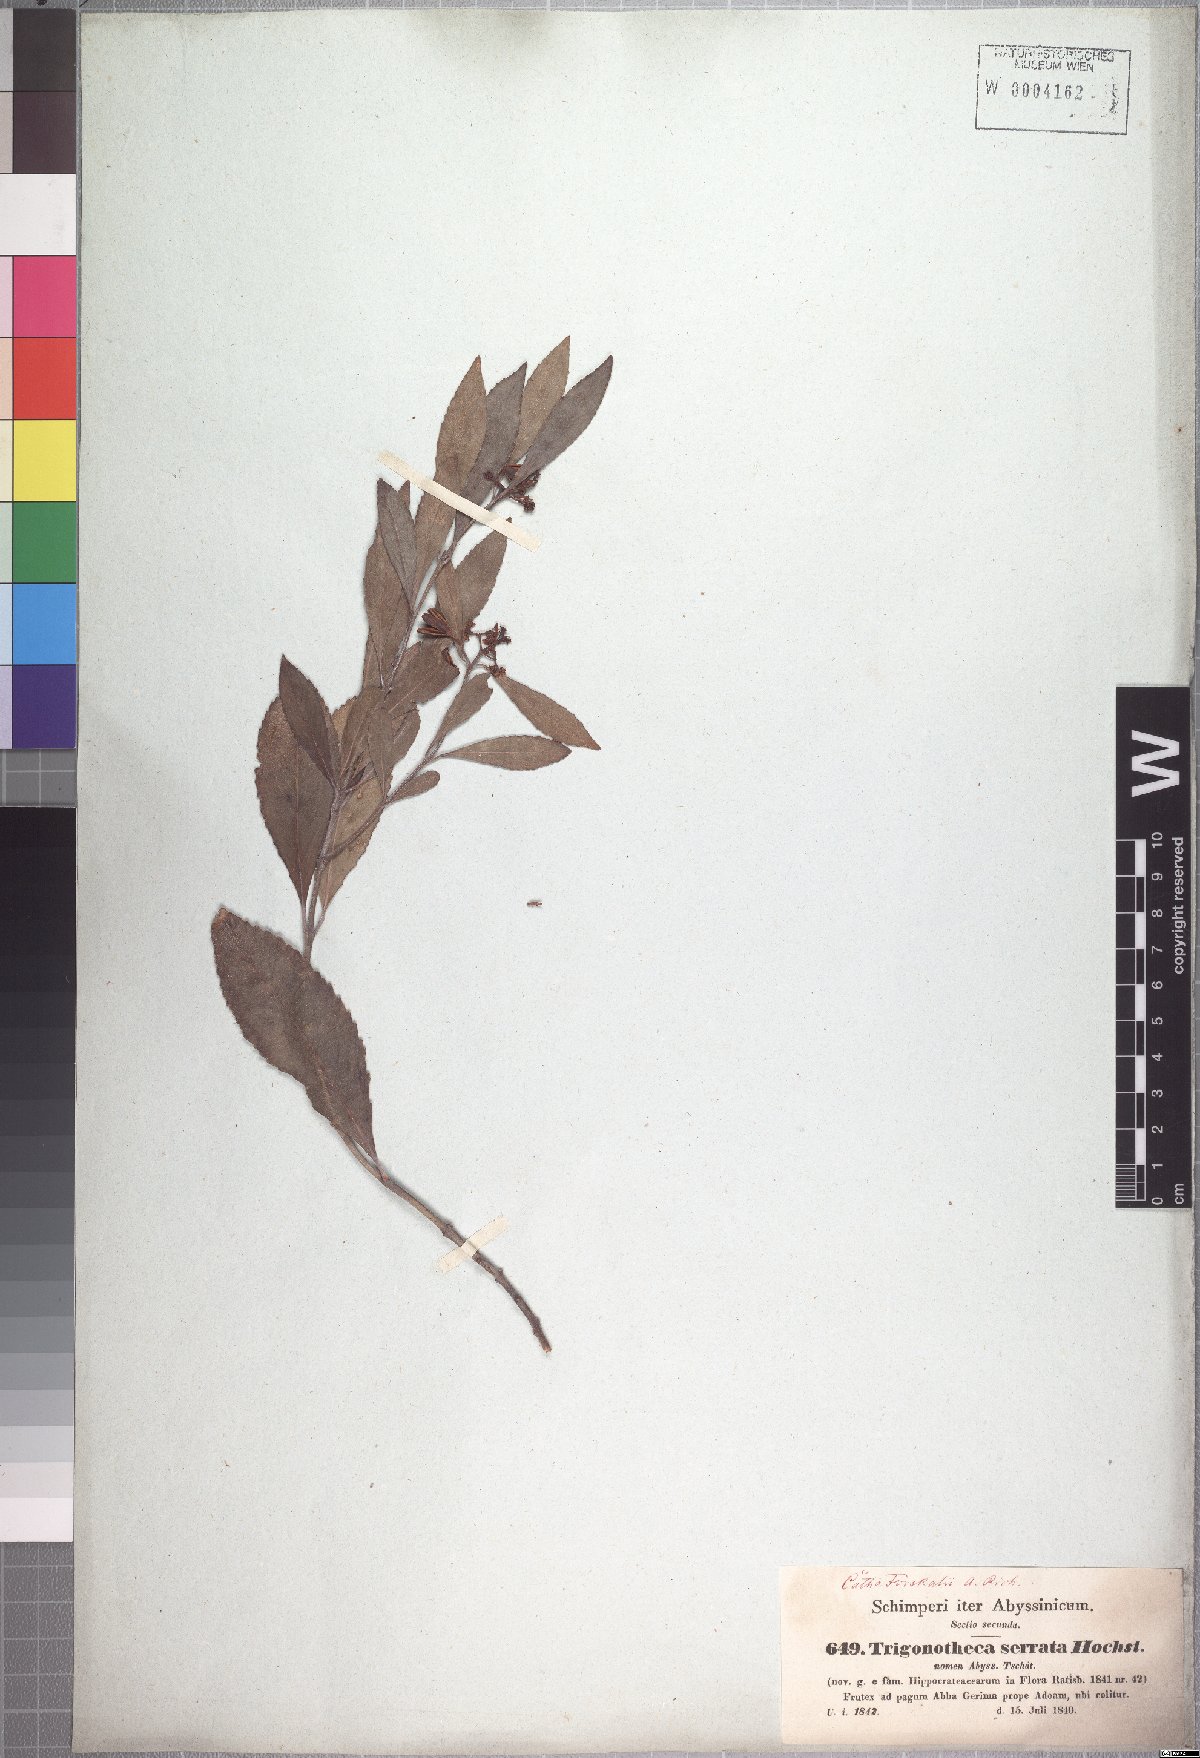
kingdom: Plantae
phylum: Tracheophyta
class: Magnoliopsida
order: Celastrales
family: Celastraceae
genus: Catha
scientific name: Catha edulis
